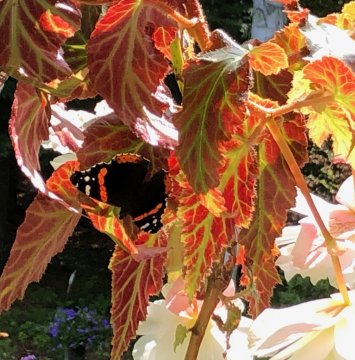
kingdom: Animalia
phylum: Arthropoda
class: Insecta
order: Lepidoptera
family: Nymphalidae
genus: Vanessa
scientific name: Vanessa atalanta
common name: Red Admiral
